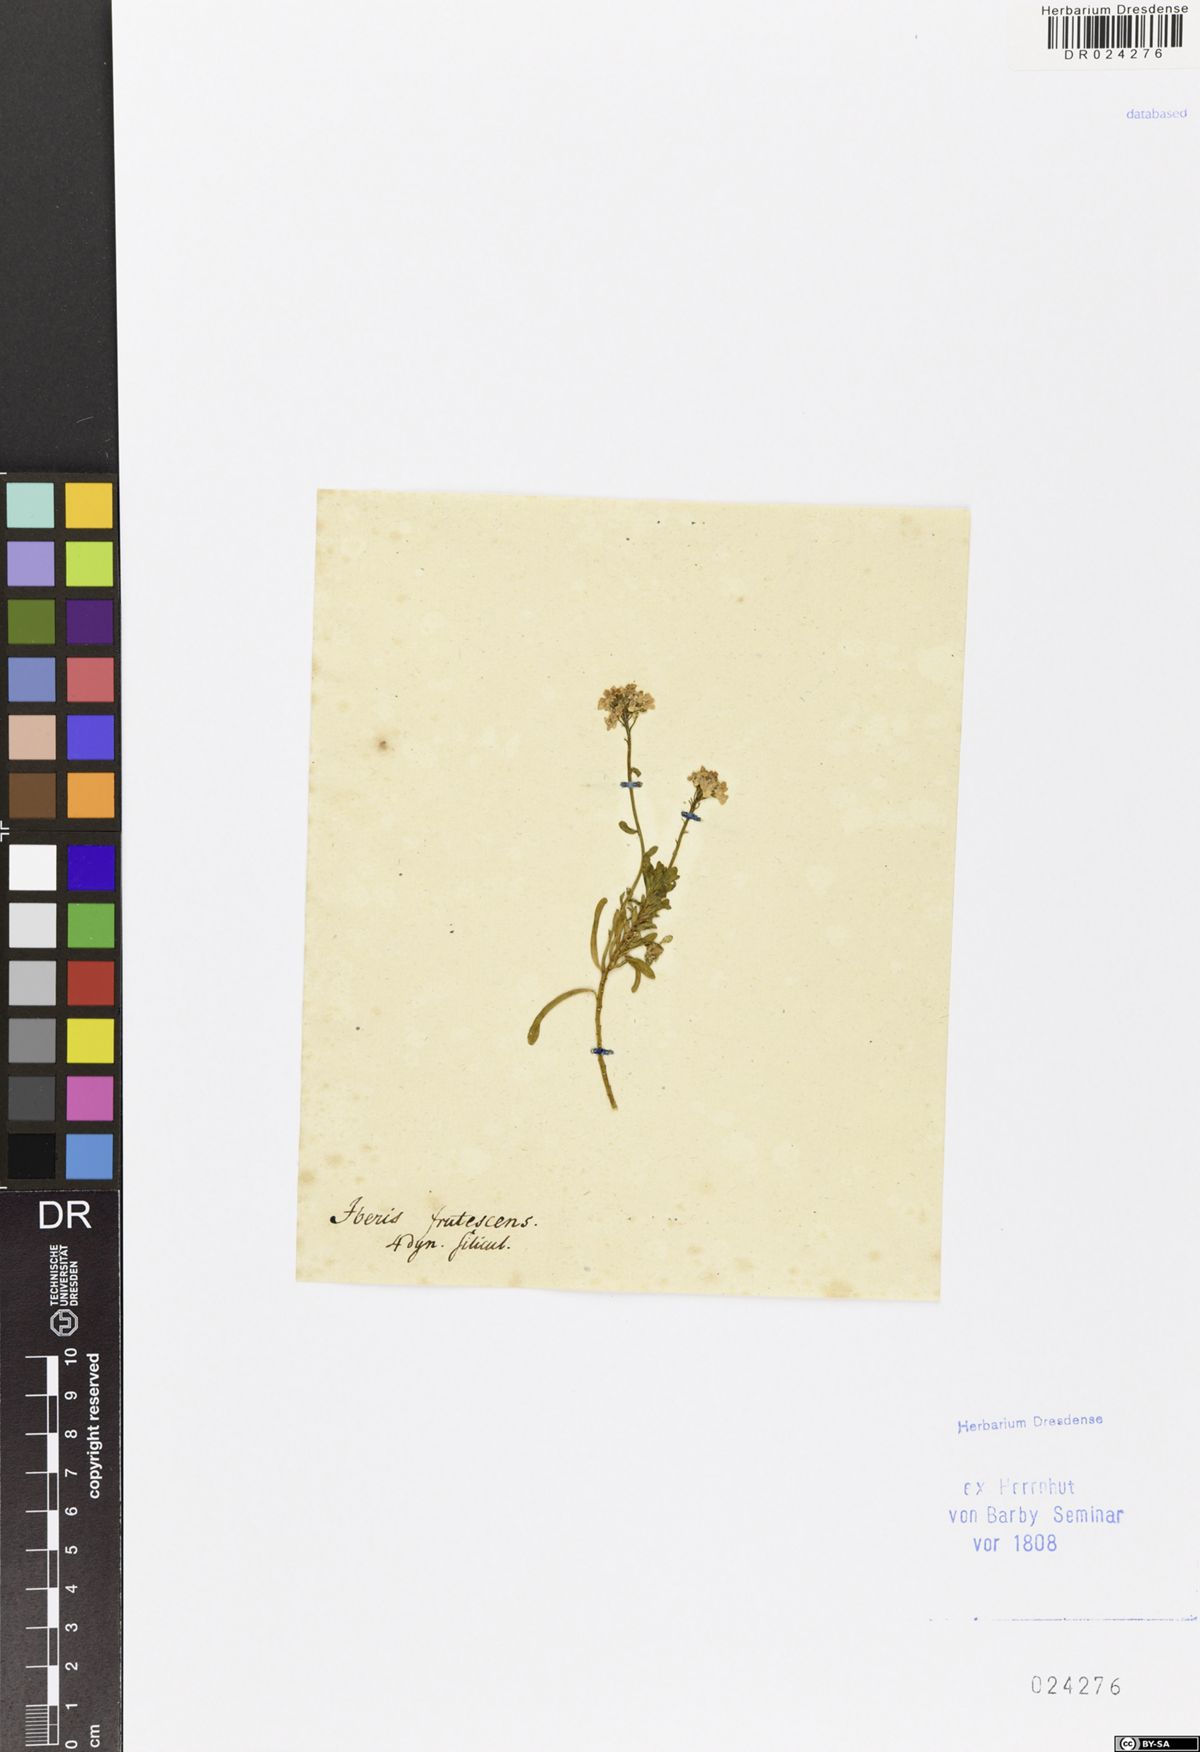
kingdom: Plantae
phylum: Tracheophyta
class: Magnoliopsida
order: Brassicales
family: Brassicaceae
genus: Iberis
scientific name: Iberis sempervirens
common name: Evergreen candytuft
